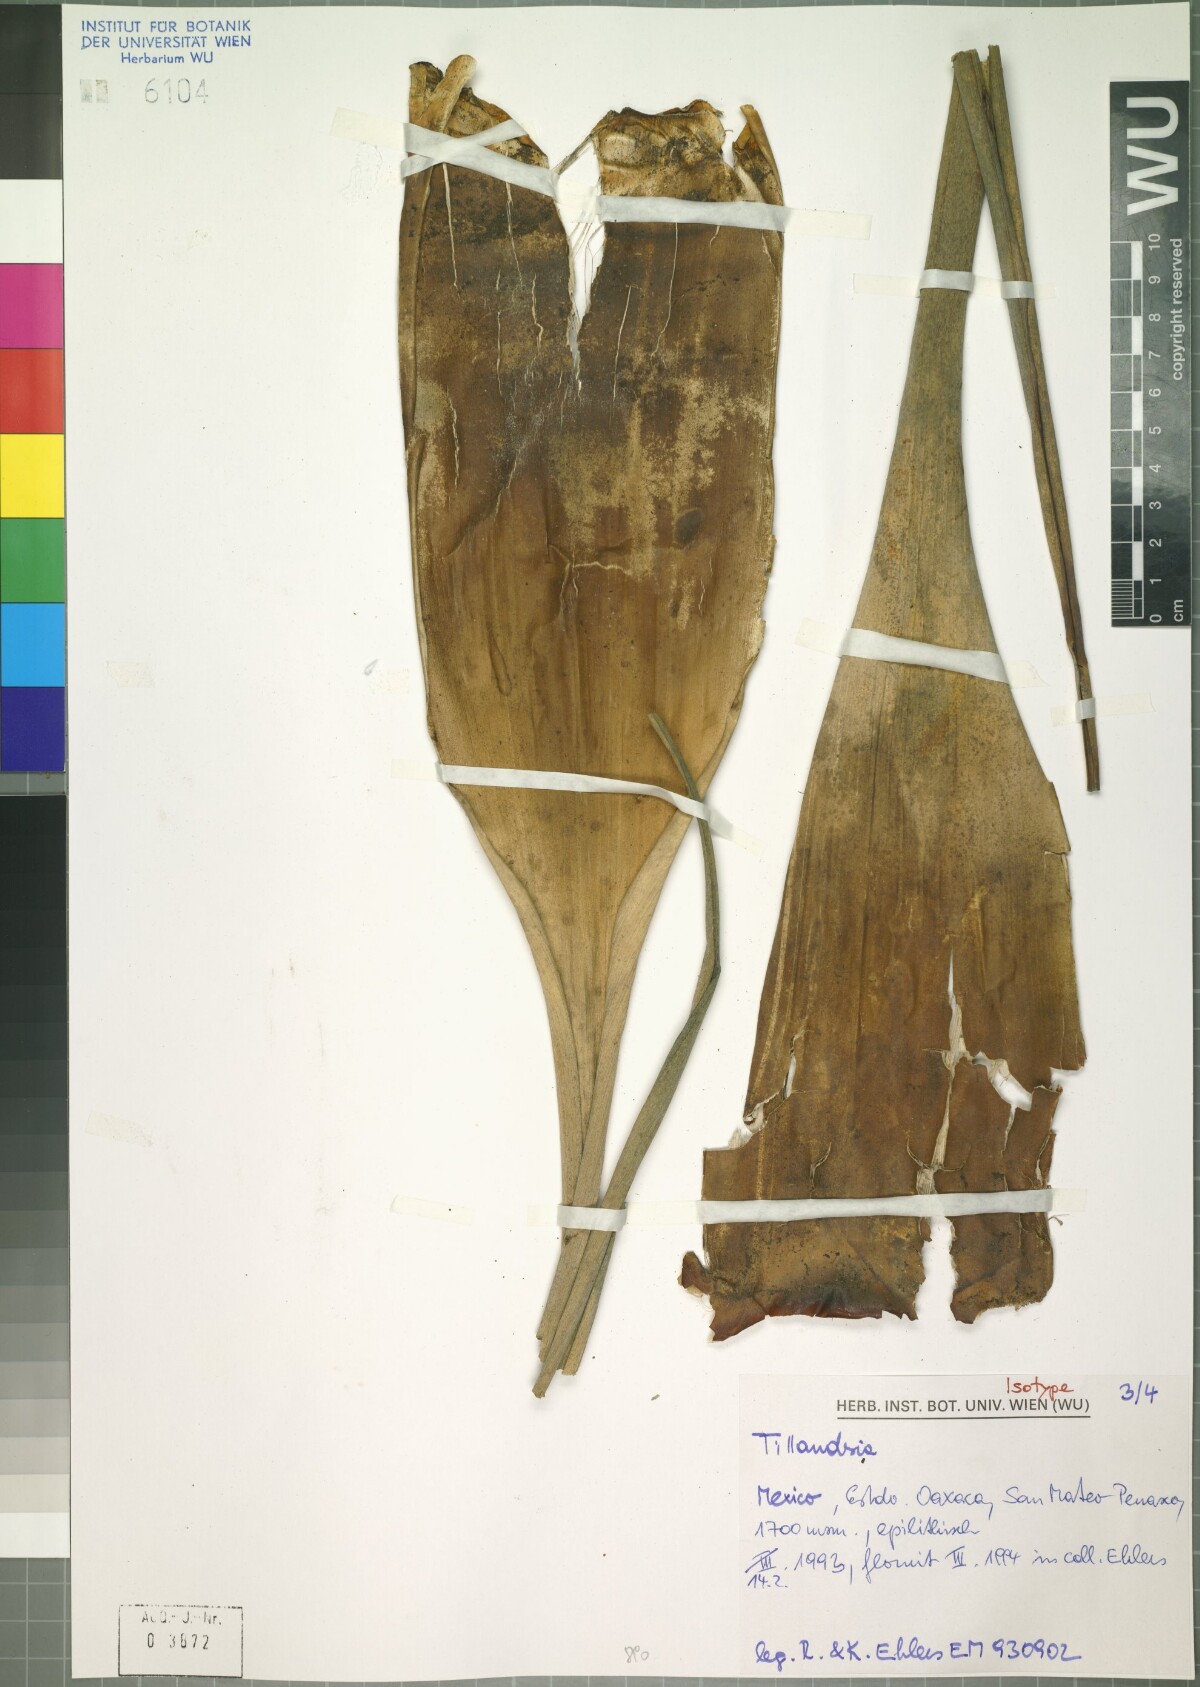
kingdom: Plantae
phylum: Tracheophyta
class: Liliopsida
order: Poales
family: Bromeliaceae
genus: Tillandsia
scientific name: Tillandsia celata
